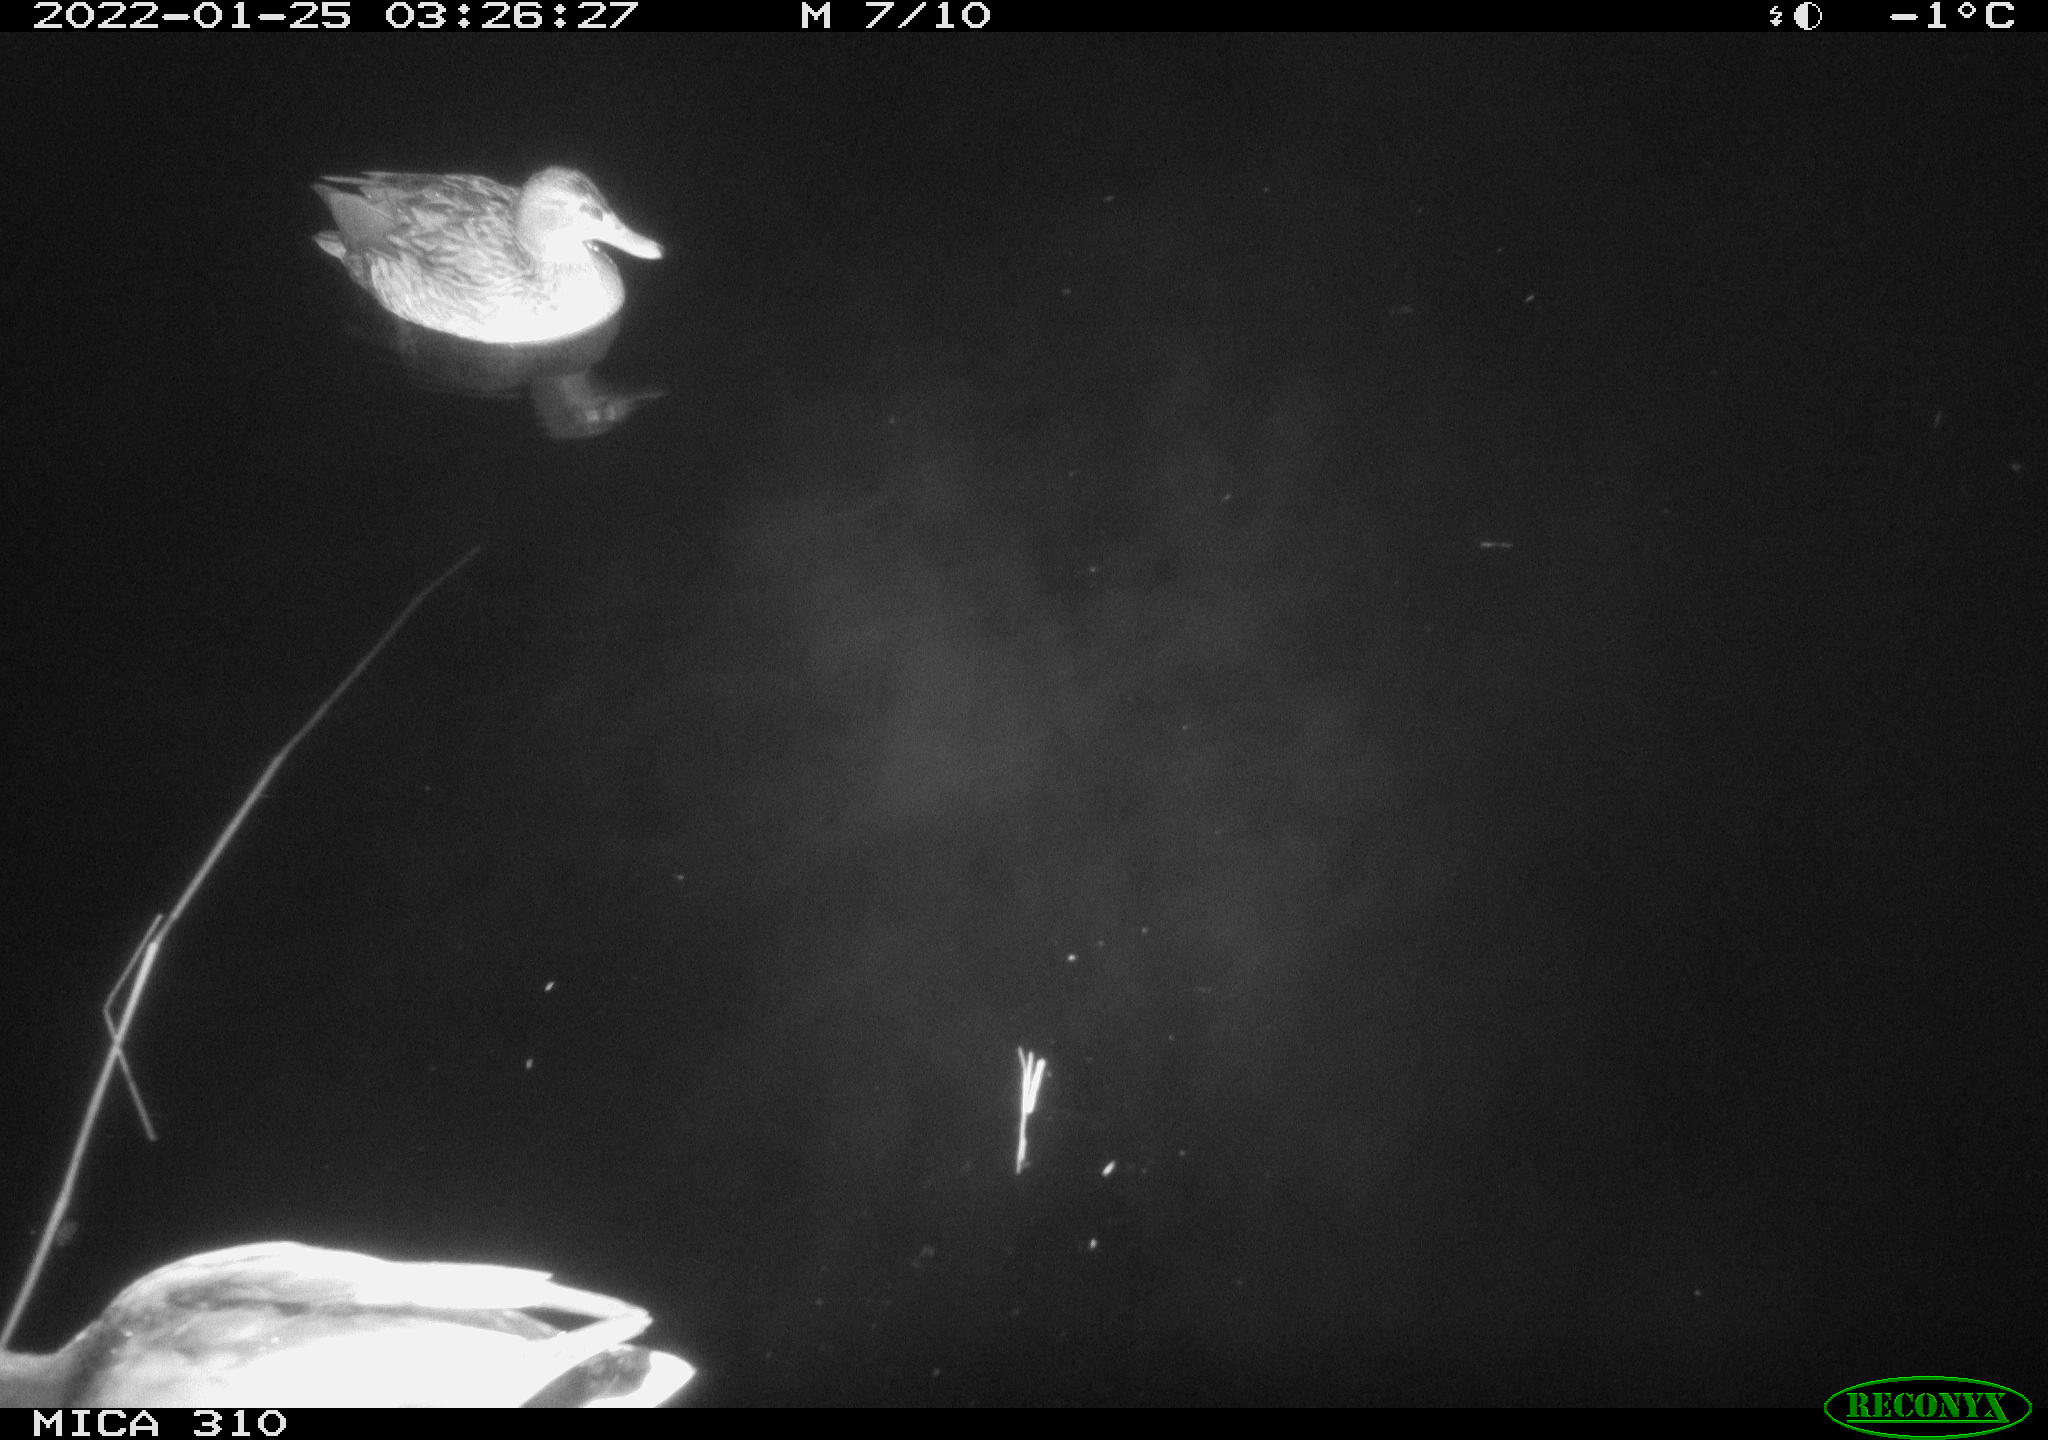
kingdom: Animalia
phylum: Chordata
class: Aves
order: Anseriformes
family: Anatidae
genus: Anas
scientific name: Anas
